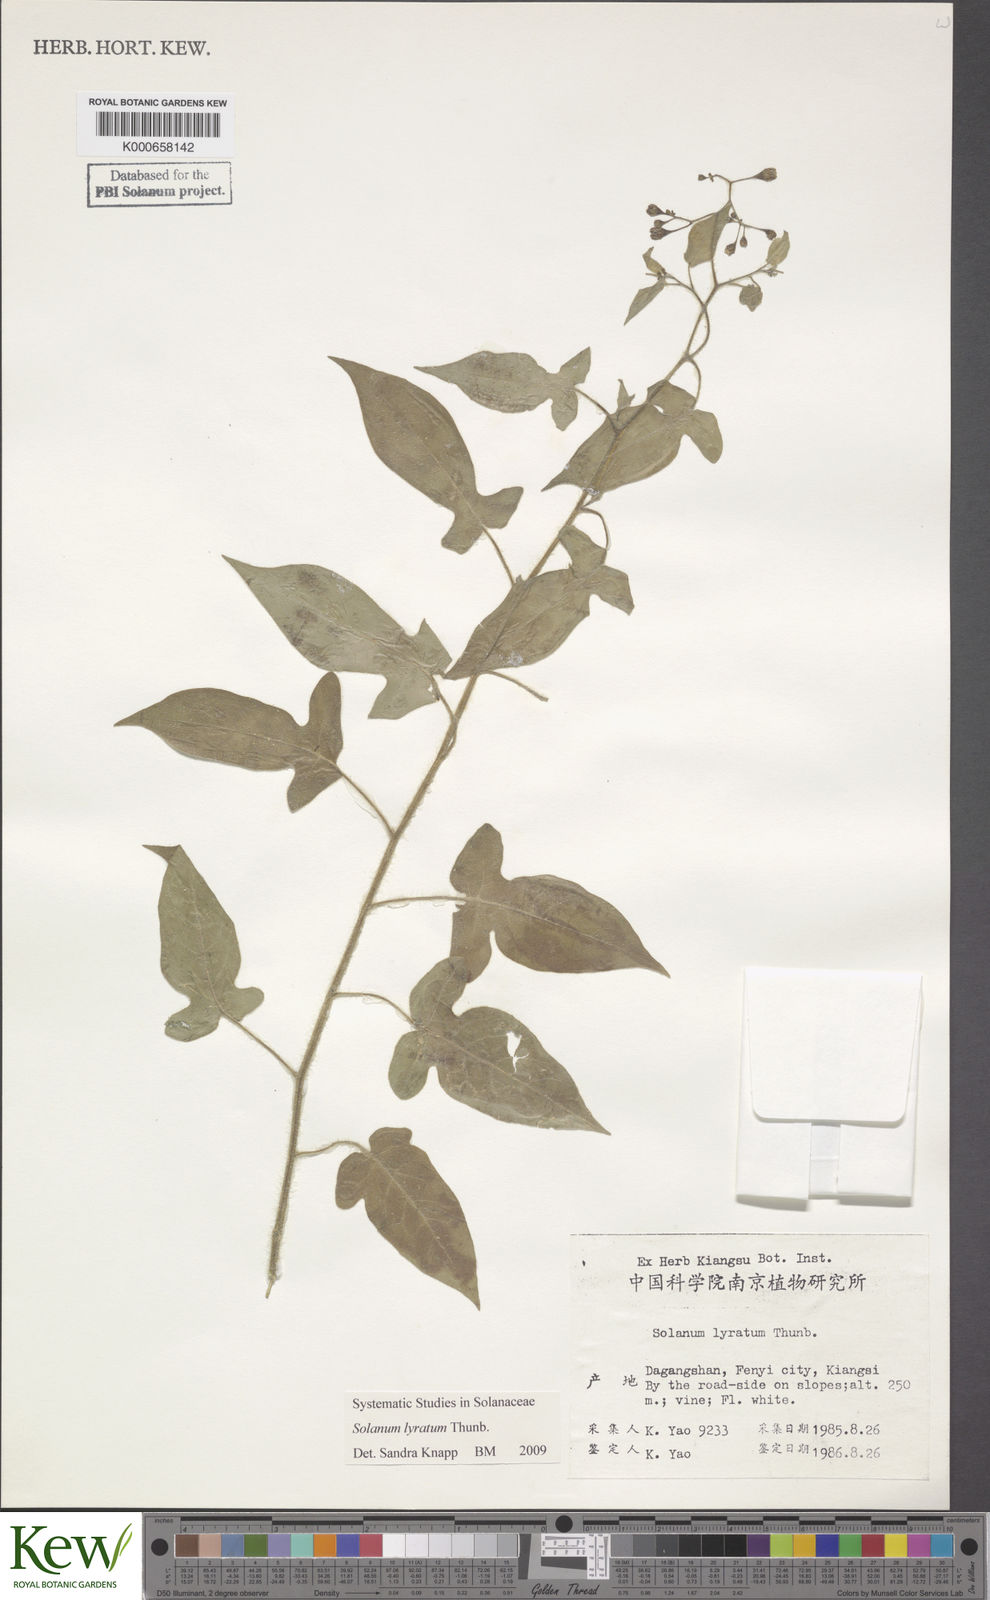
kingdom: Plantae
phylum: Tracheophyta
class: Magnoliopsida
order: Solanales
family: Solanaceae
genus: Solanum
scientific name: Solanum lyratum
